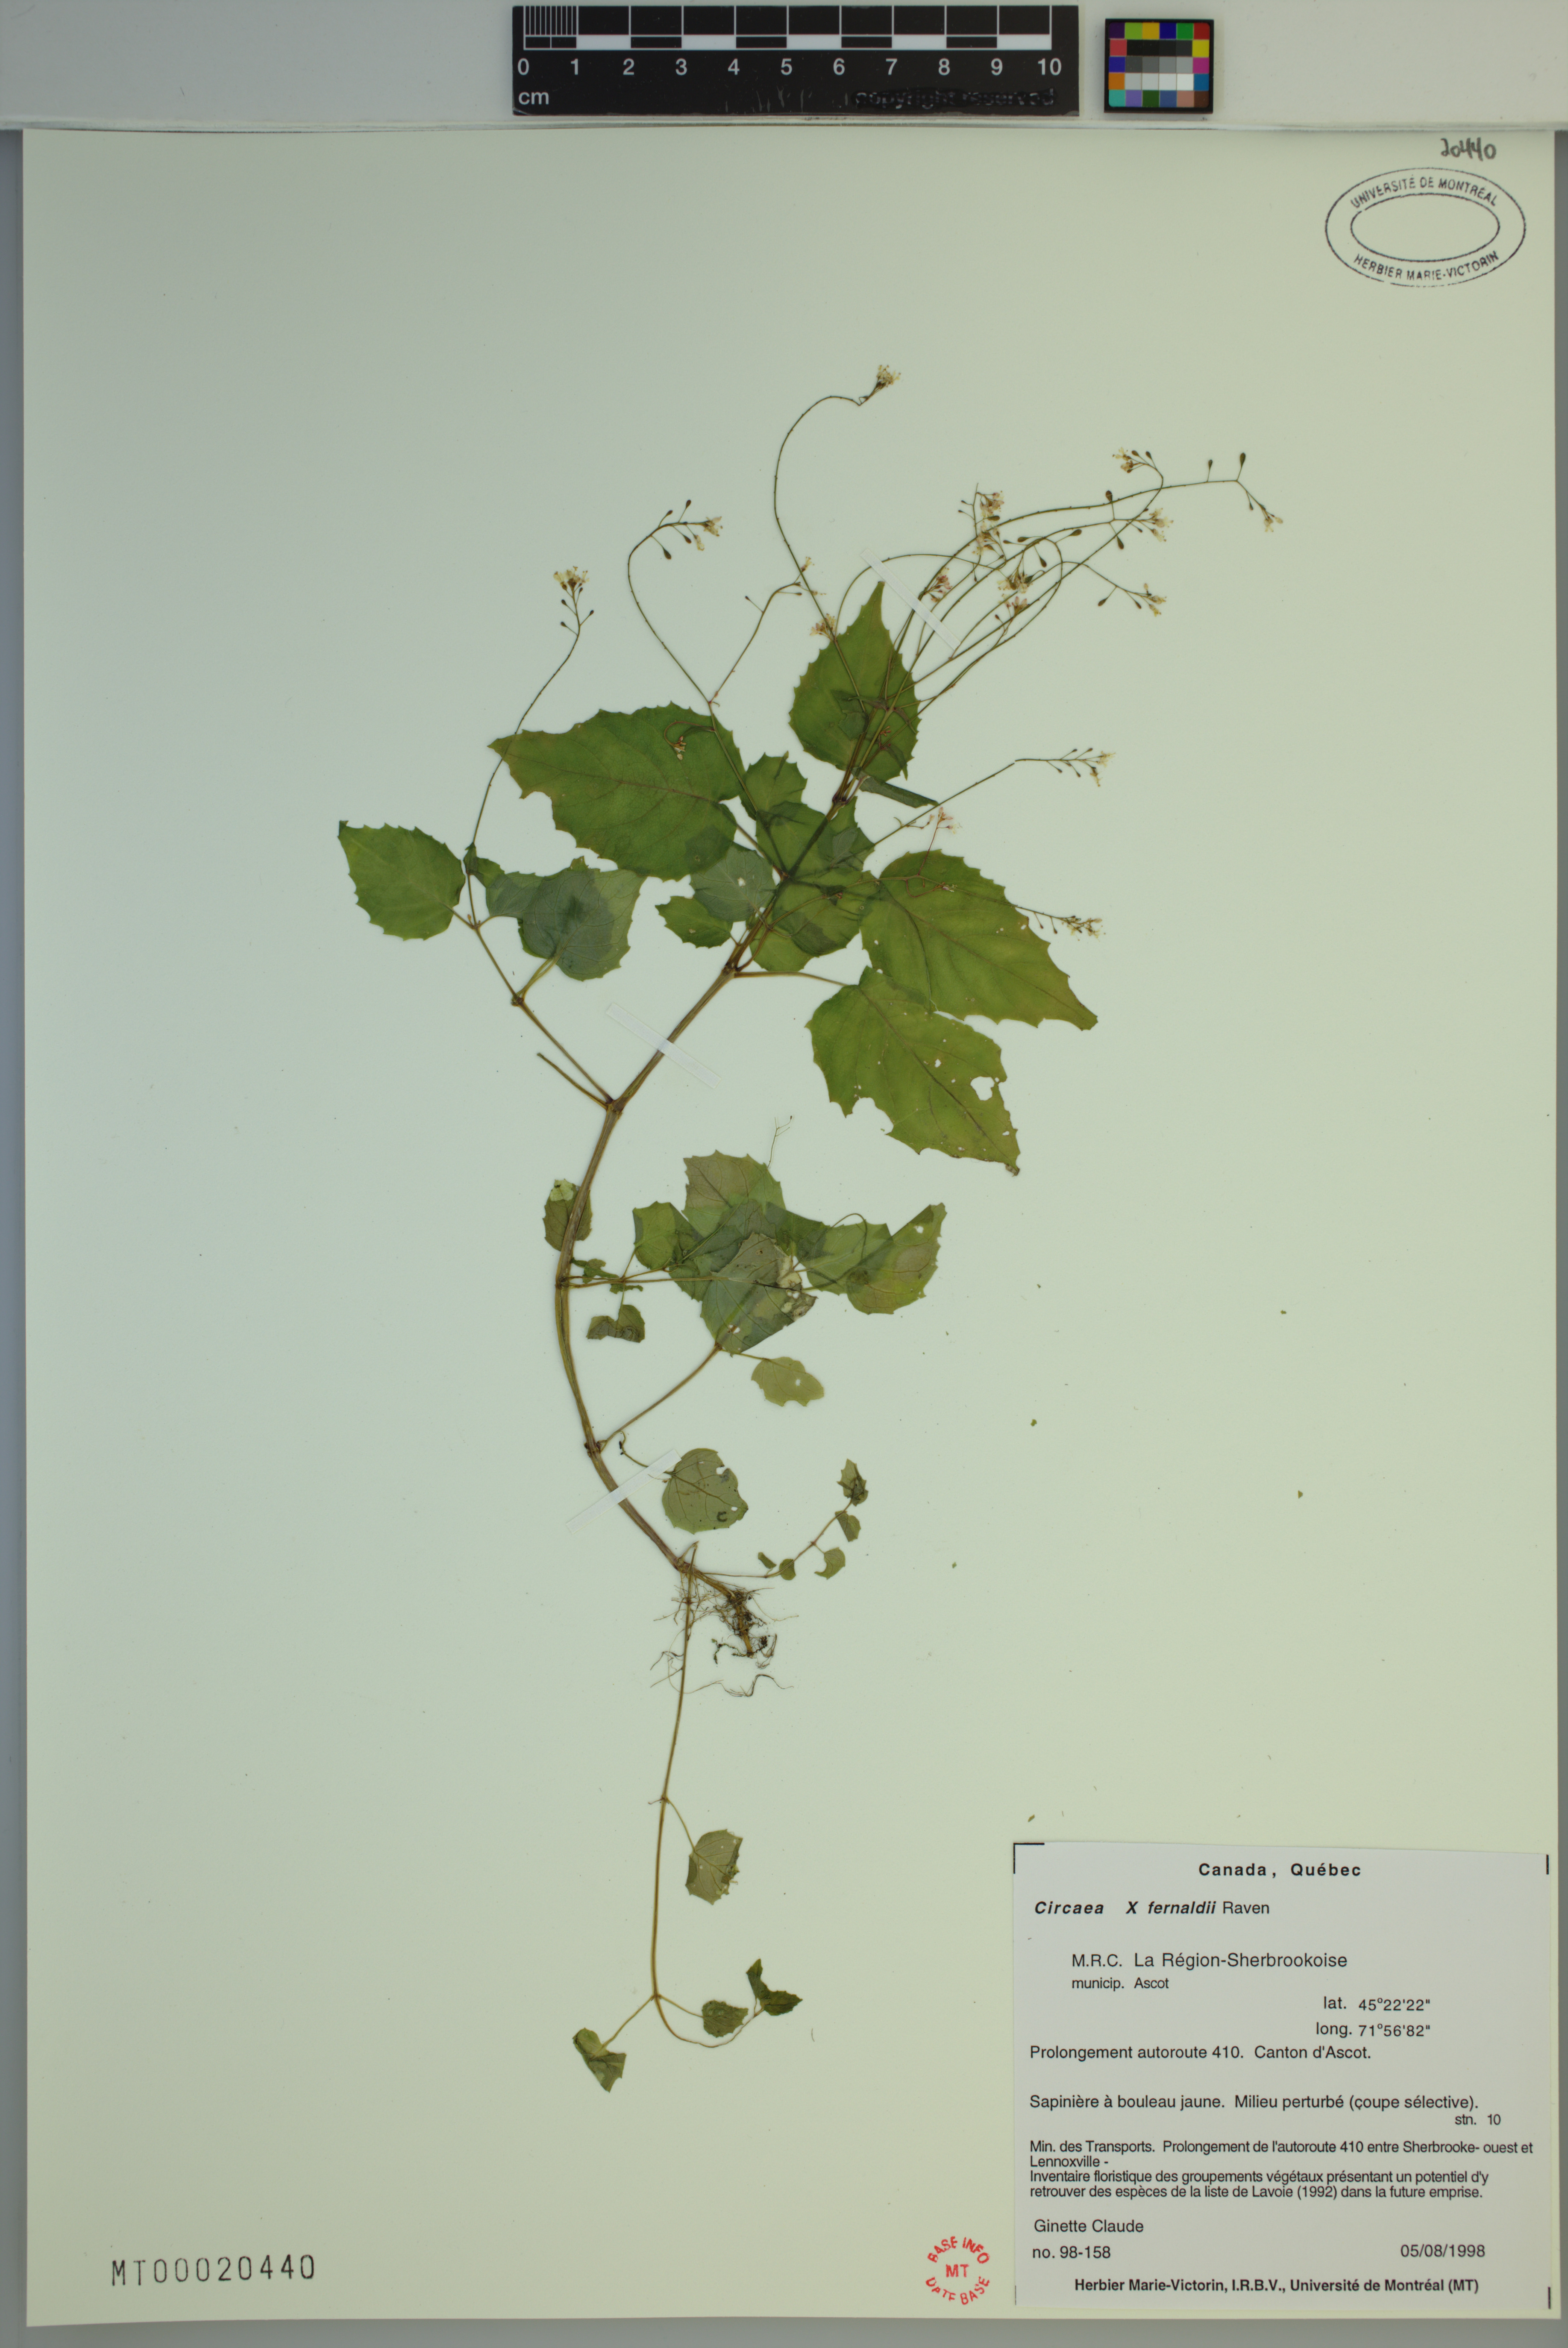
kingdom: Plantae
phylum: Tracheophyta
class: Magnoliopsida
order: Myrtales
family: Onagraceae
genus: Circaea
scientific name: Circaea
